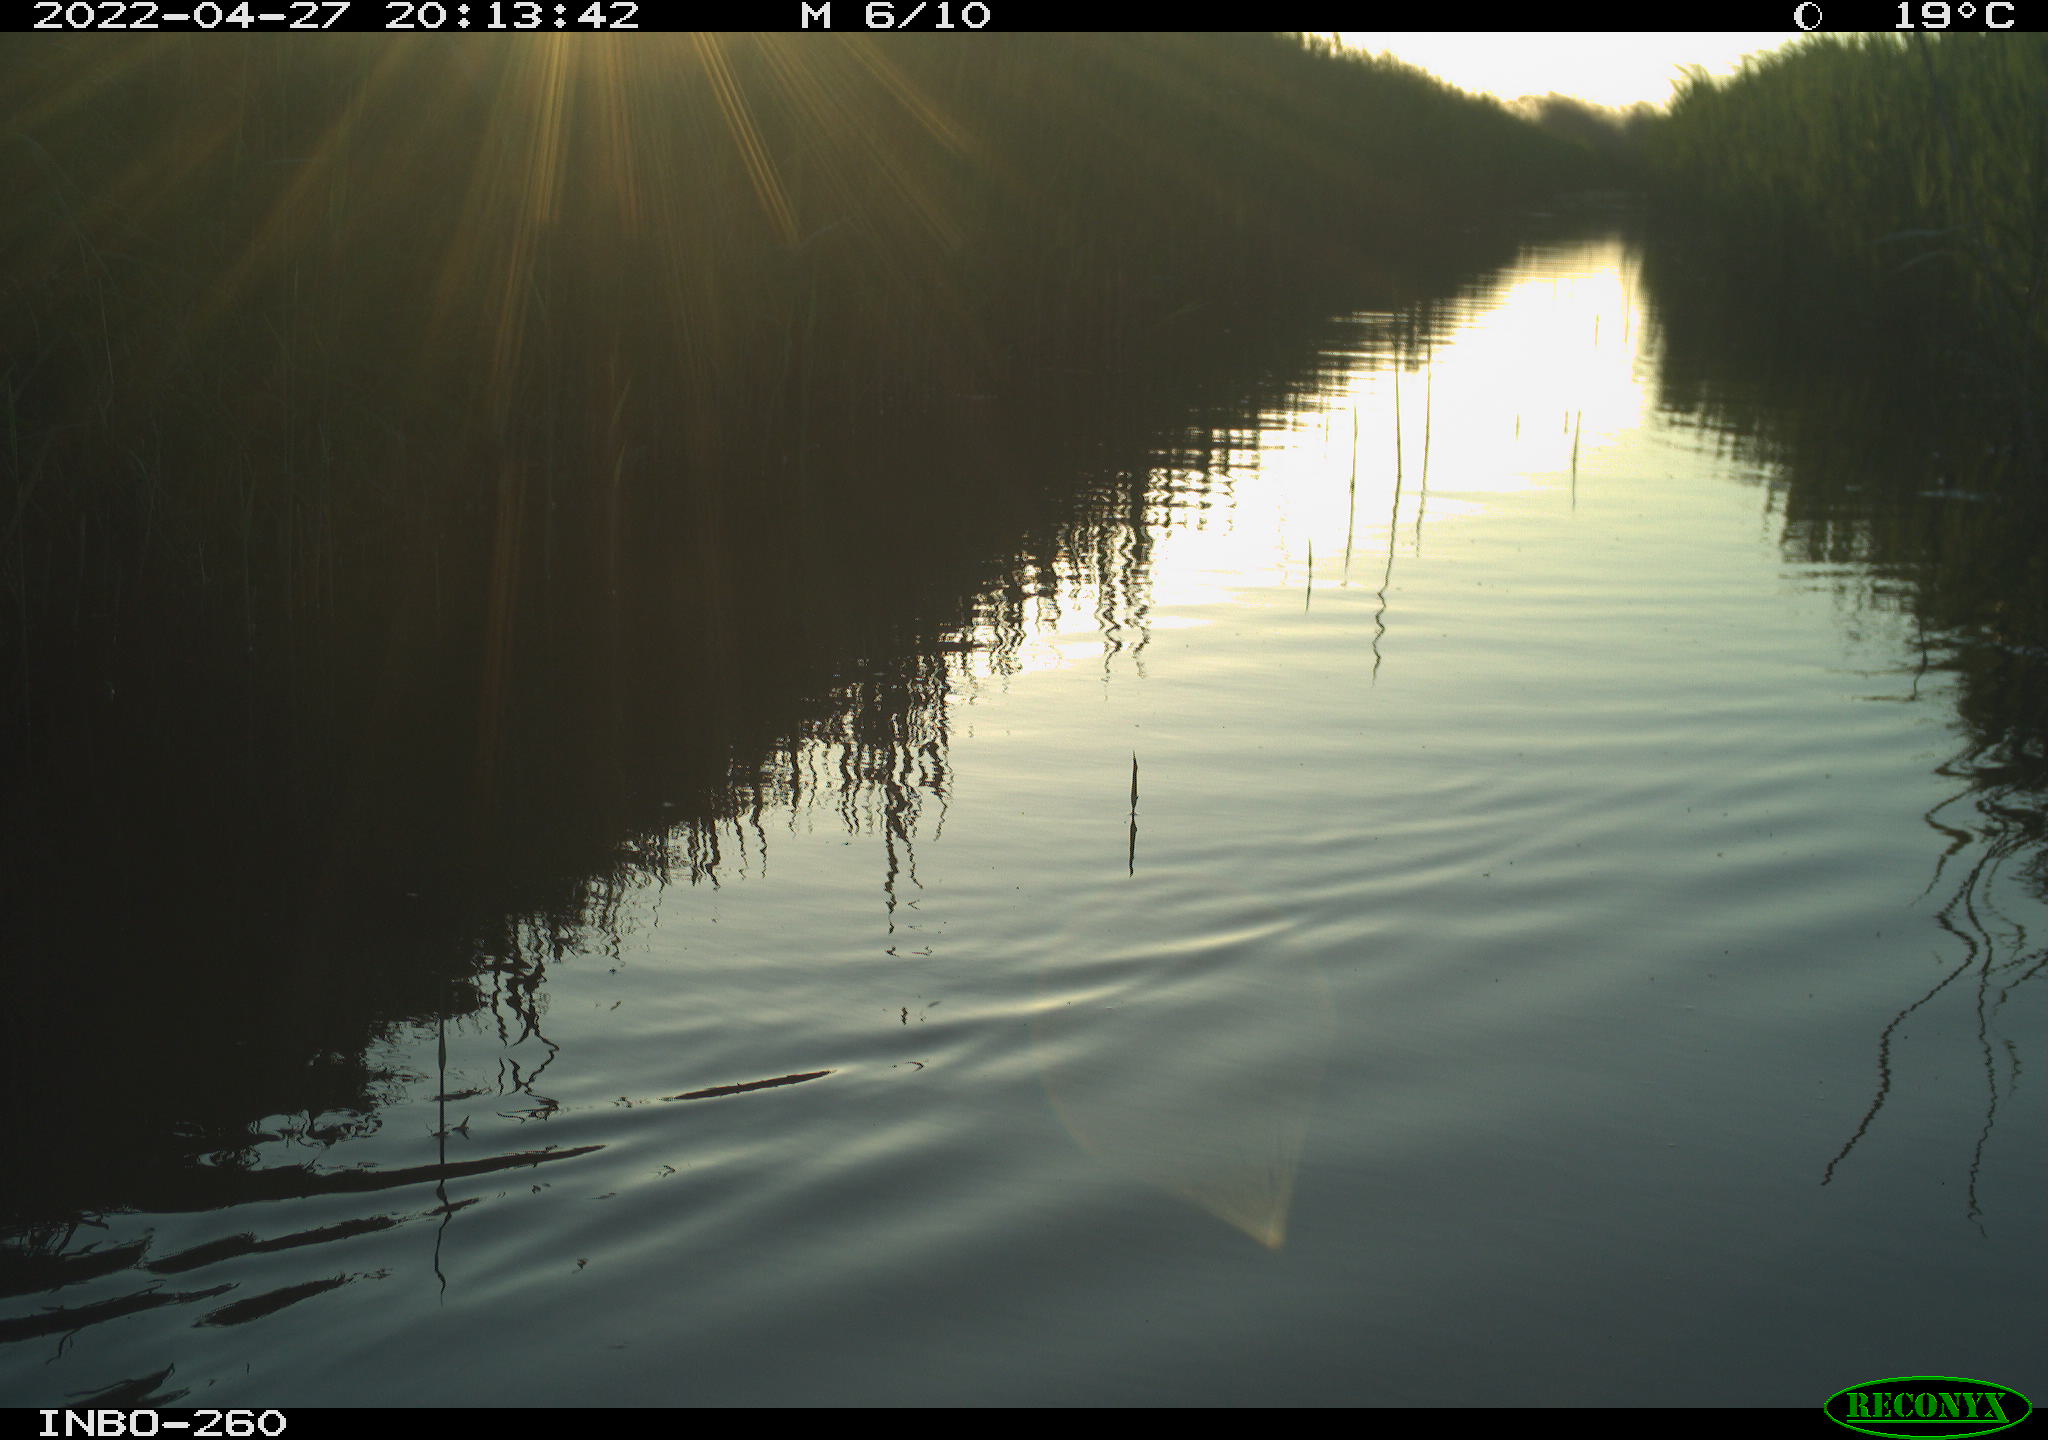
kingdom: Animalia
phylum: Chordata
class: Aves
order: Gruiformes
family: Rallidae
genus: Fulica
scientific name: Fulica atra
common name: Eurasian coot
